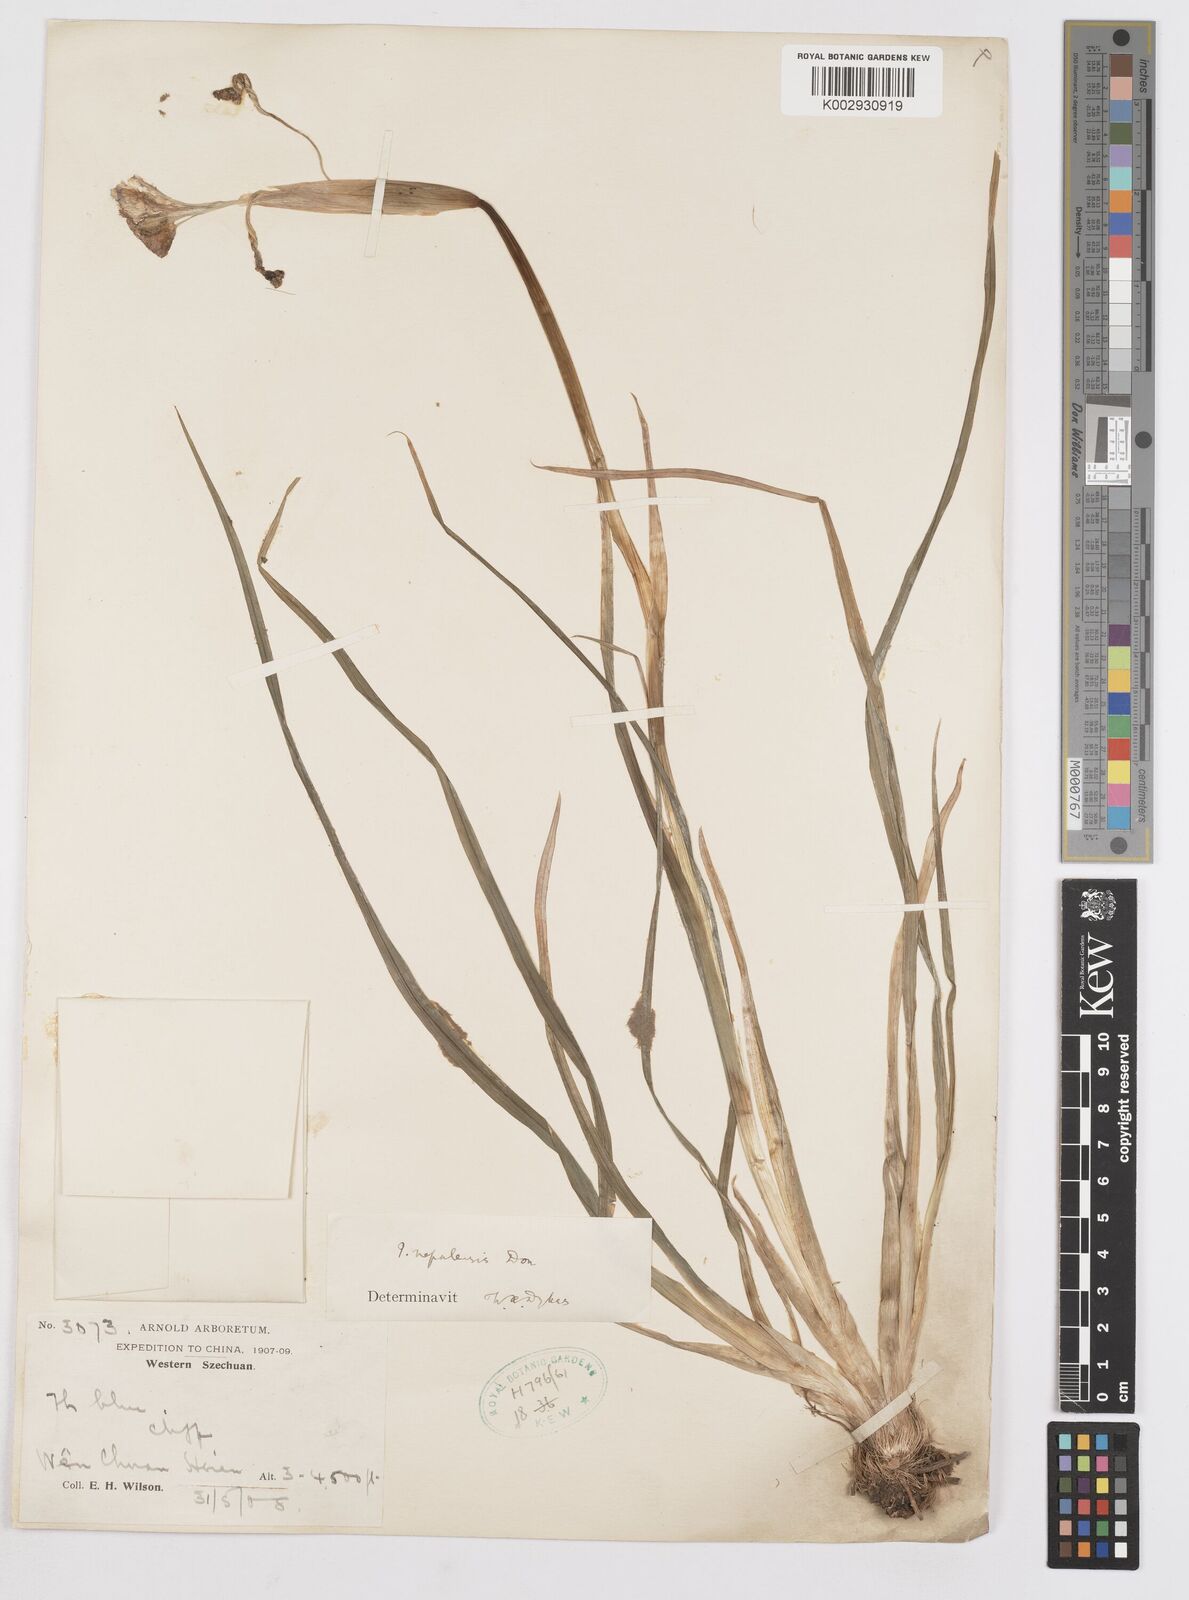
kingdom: Plantae
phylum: Tracheophyta
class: Liliopsida
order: Asparagales
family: Iridaceae
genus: Iris
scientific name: Iris decora
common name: Nepal iris
